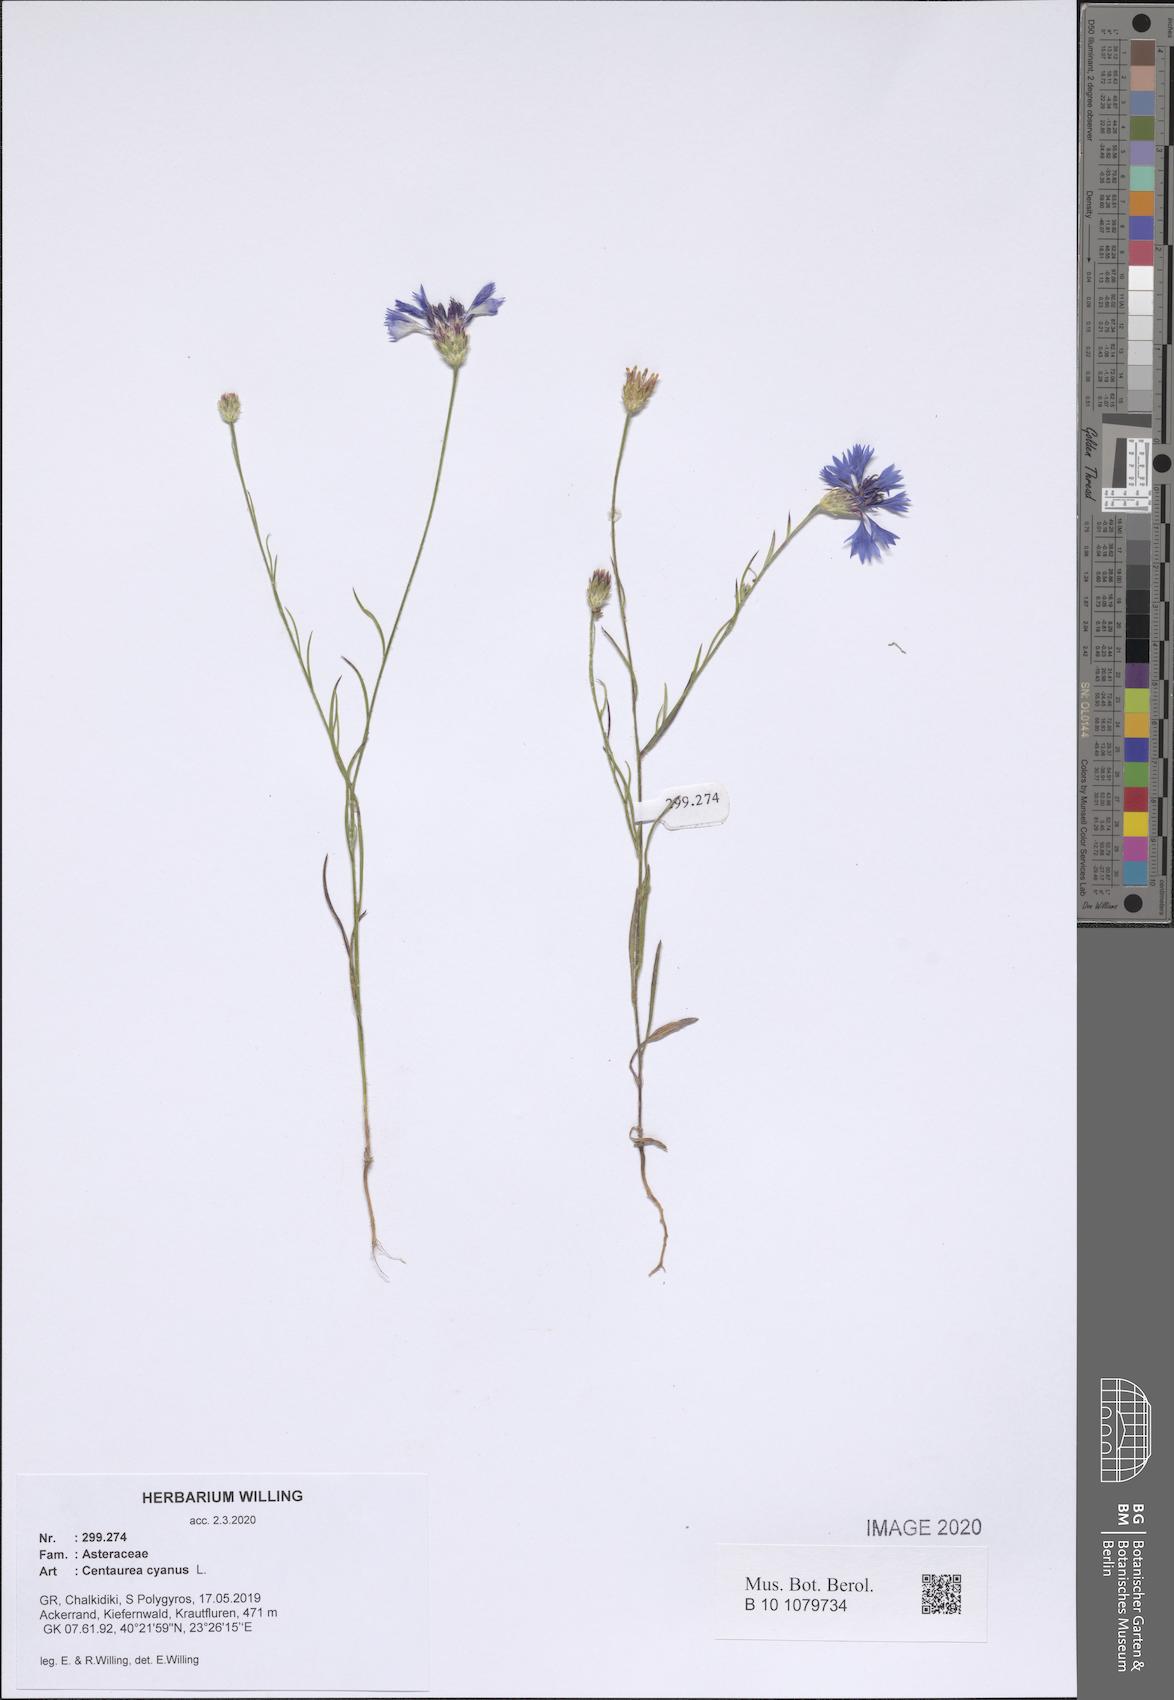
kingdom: Plantae
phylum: Tracheophyta
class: Magnoliopsida
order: Asterales
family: Asteraceae
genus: Centaurea
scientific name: Centaurea cyanus
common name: Cornflower
